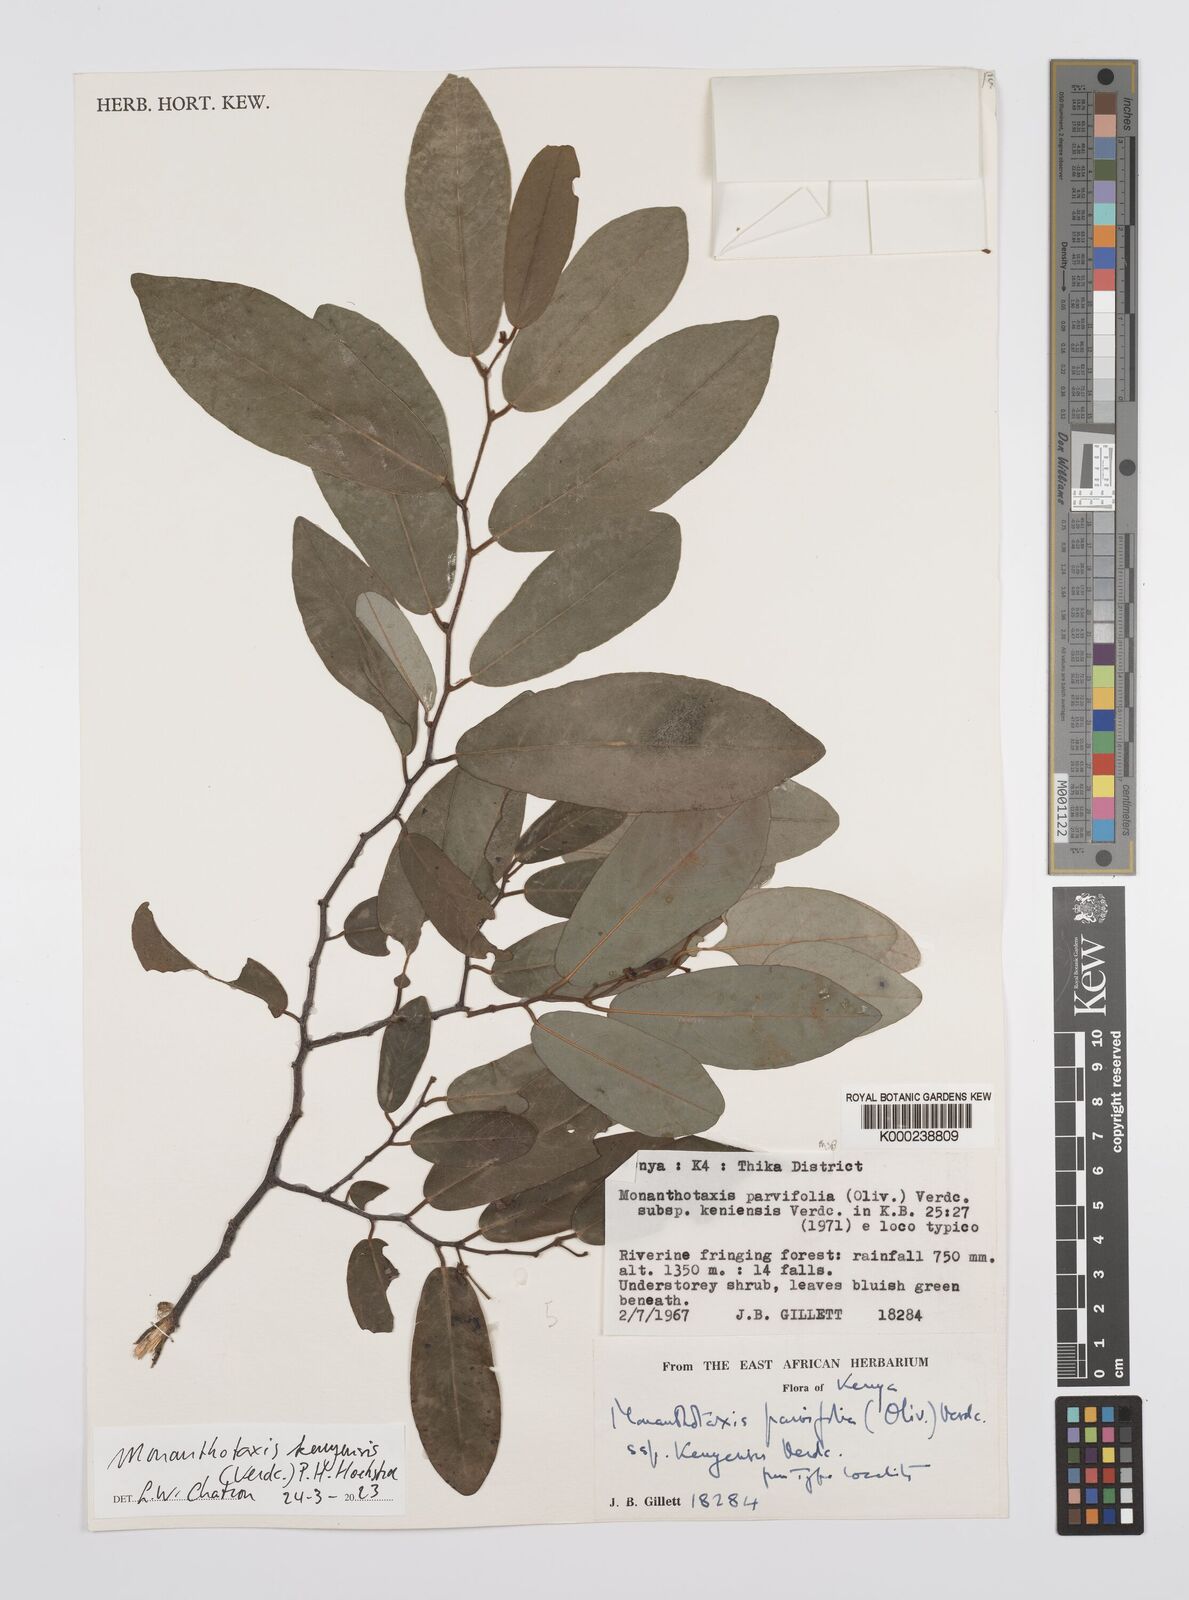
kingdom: Plantae
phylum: Tracheophyta
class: Magnoliopsida
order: Magnoliales
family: Annonaceae
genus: Monanthotaxis
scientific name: Monanthotaxis parvifolia
